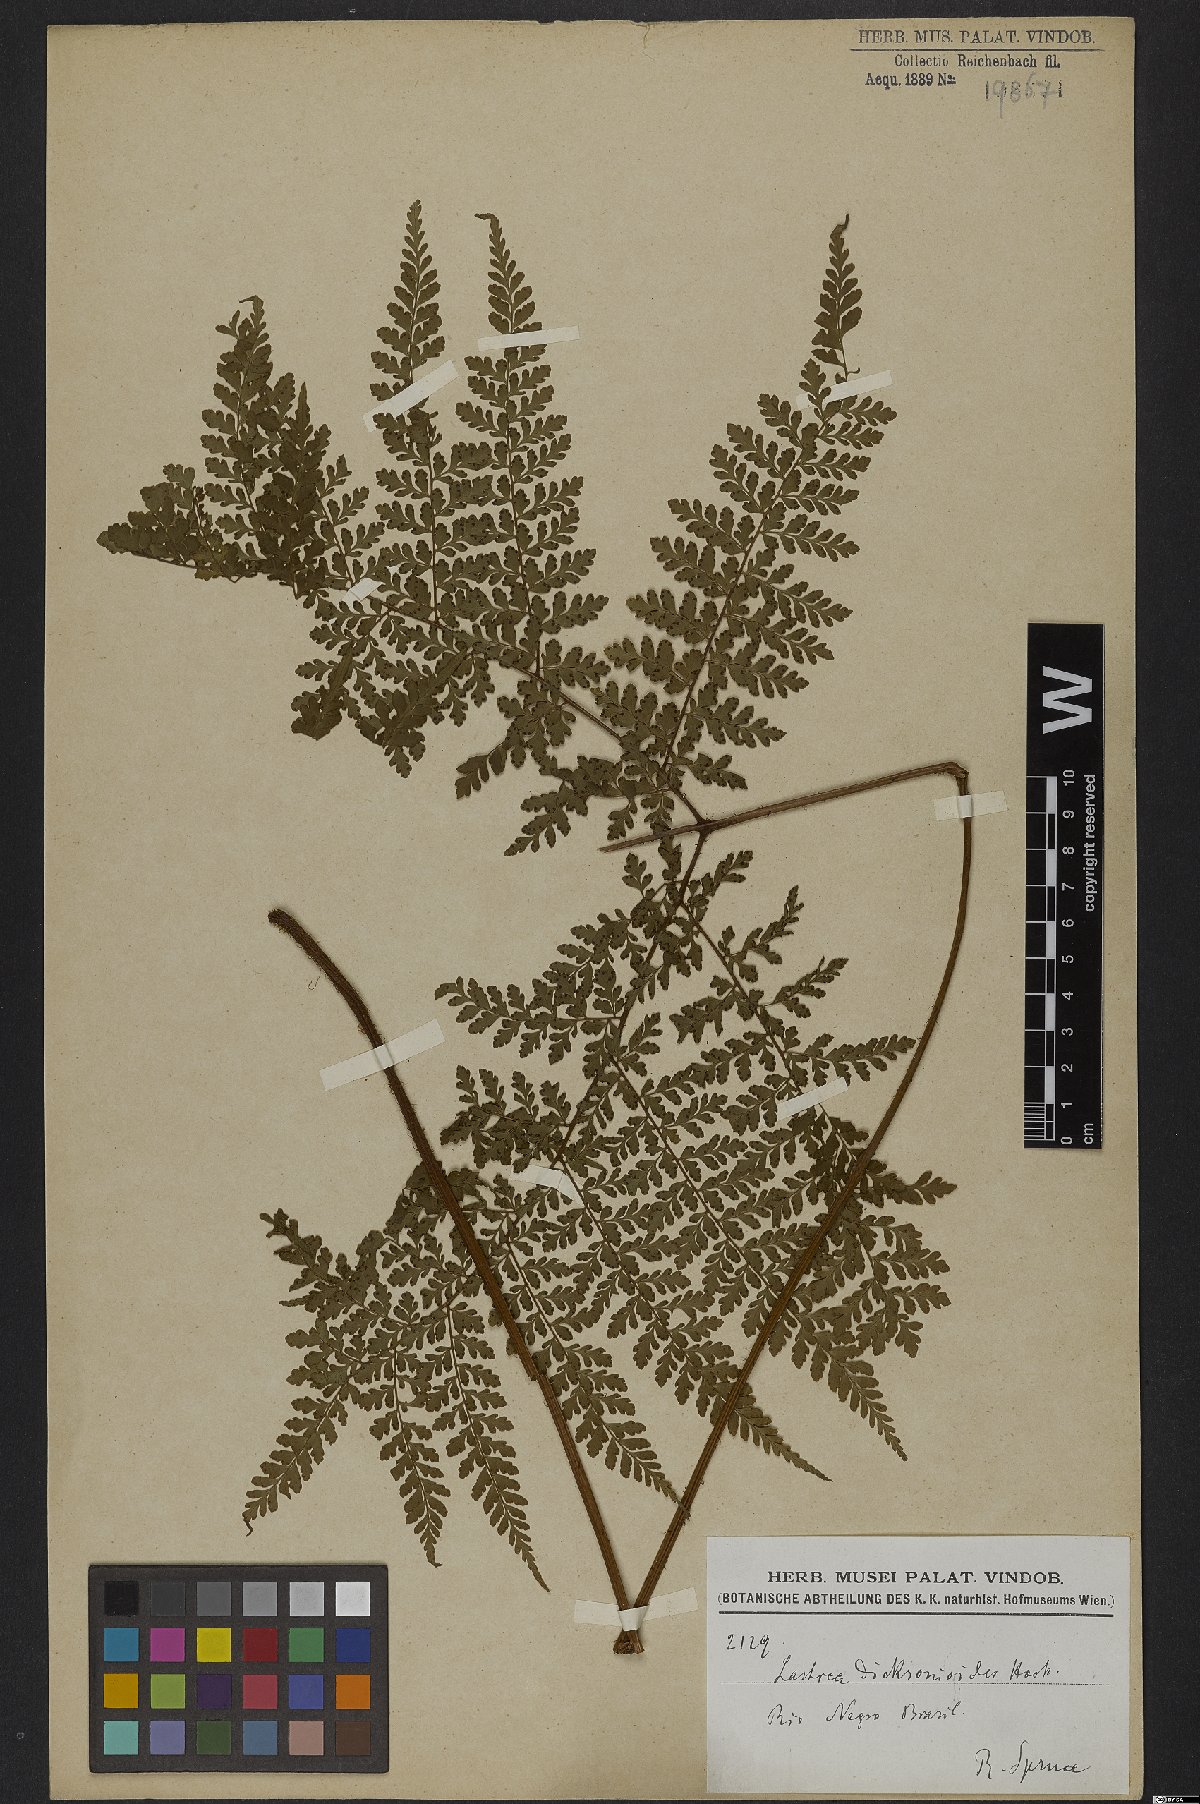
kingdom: Plantae
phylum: Tracheophyta
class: Polypodiopsida
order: Polypodiales
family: Dryopteridaceae
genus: Dryopteris
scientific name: Dryopteris dicksonioides
